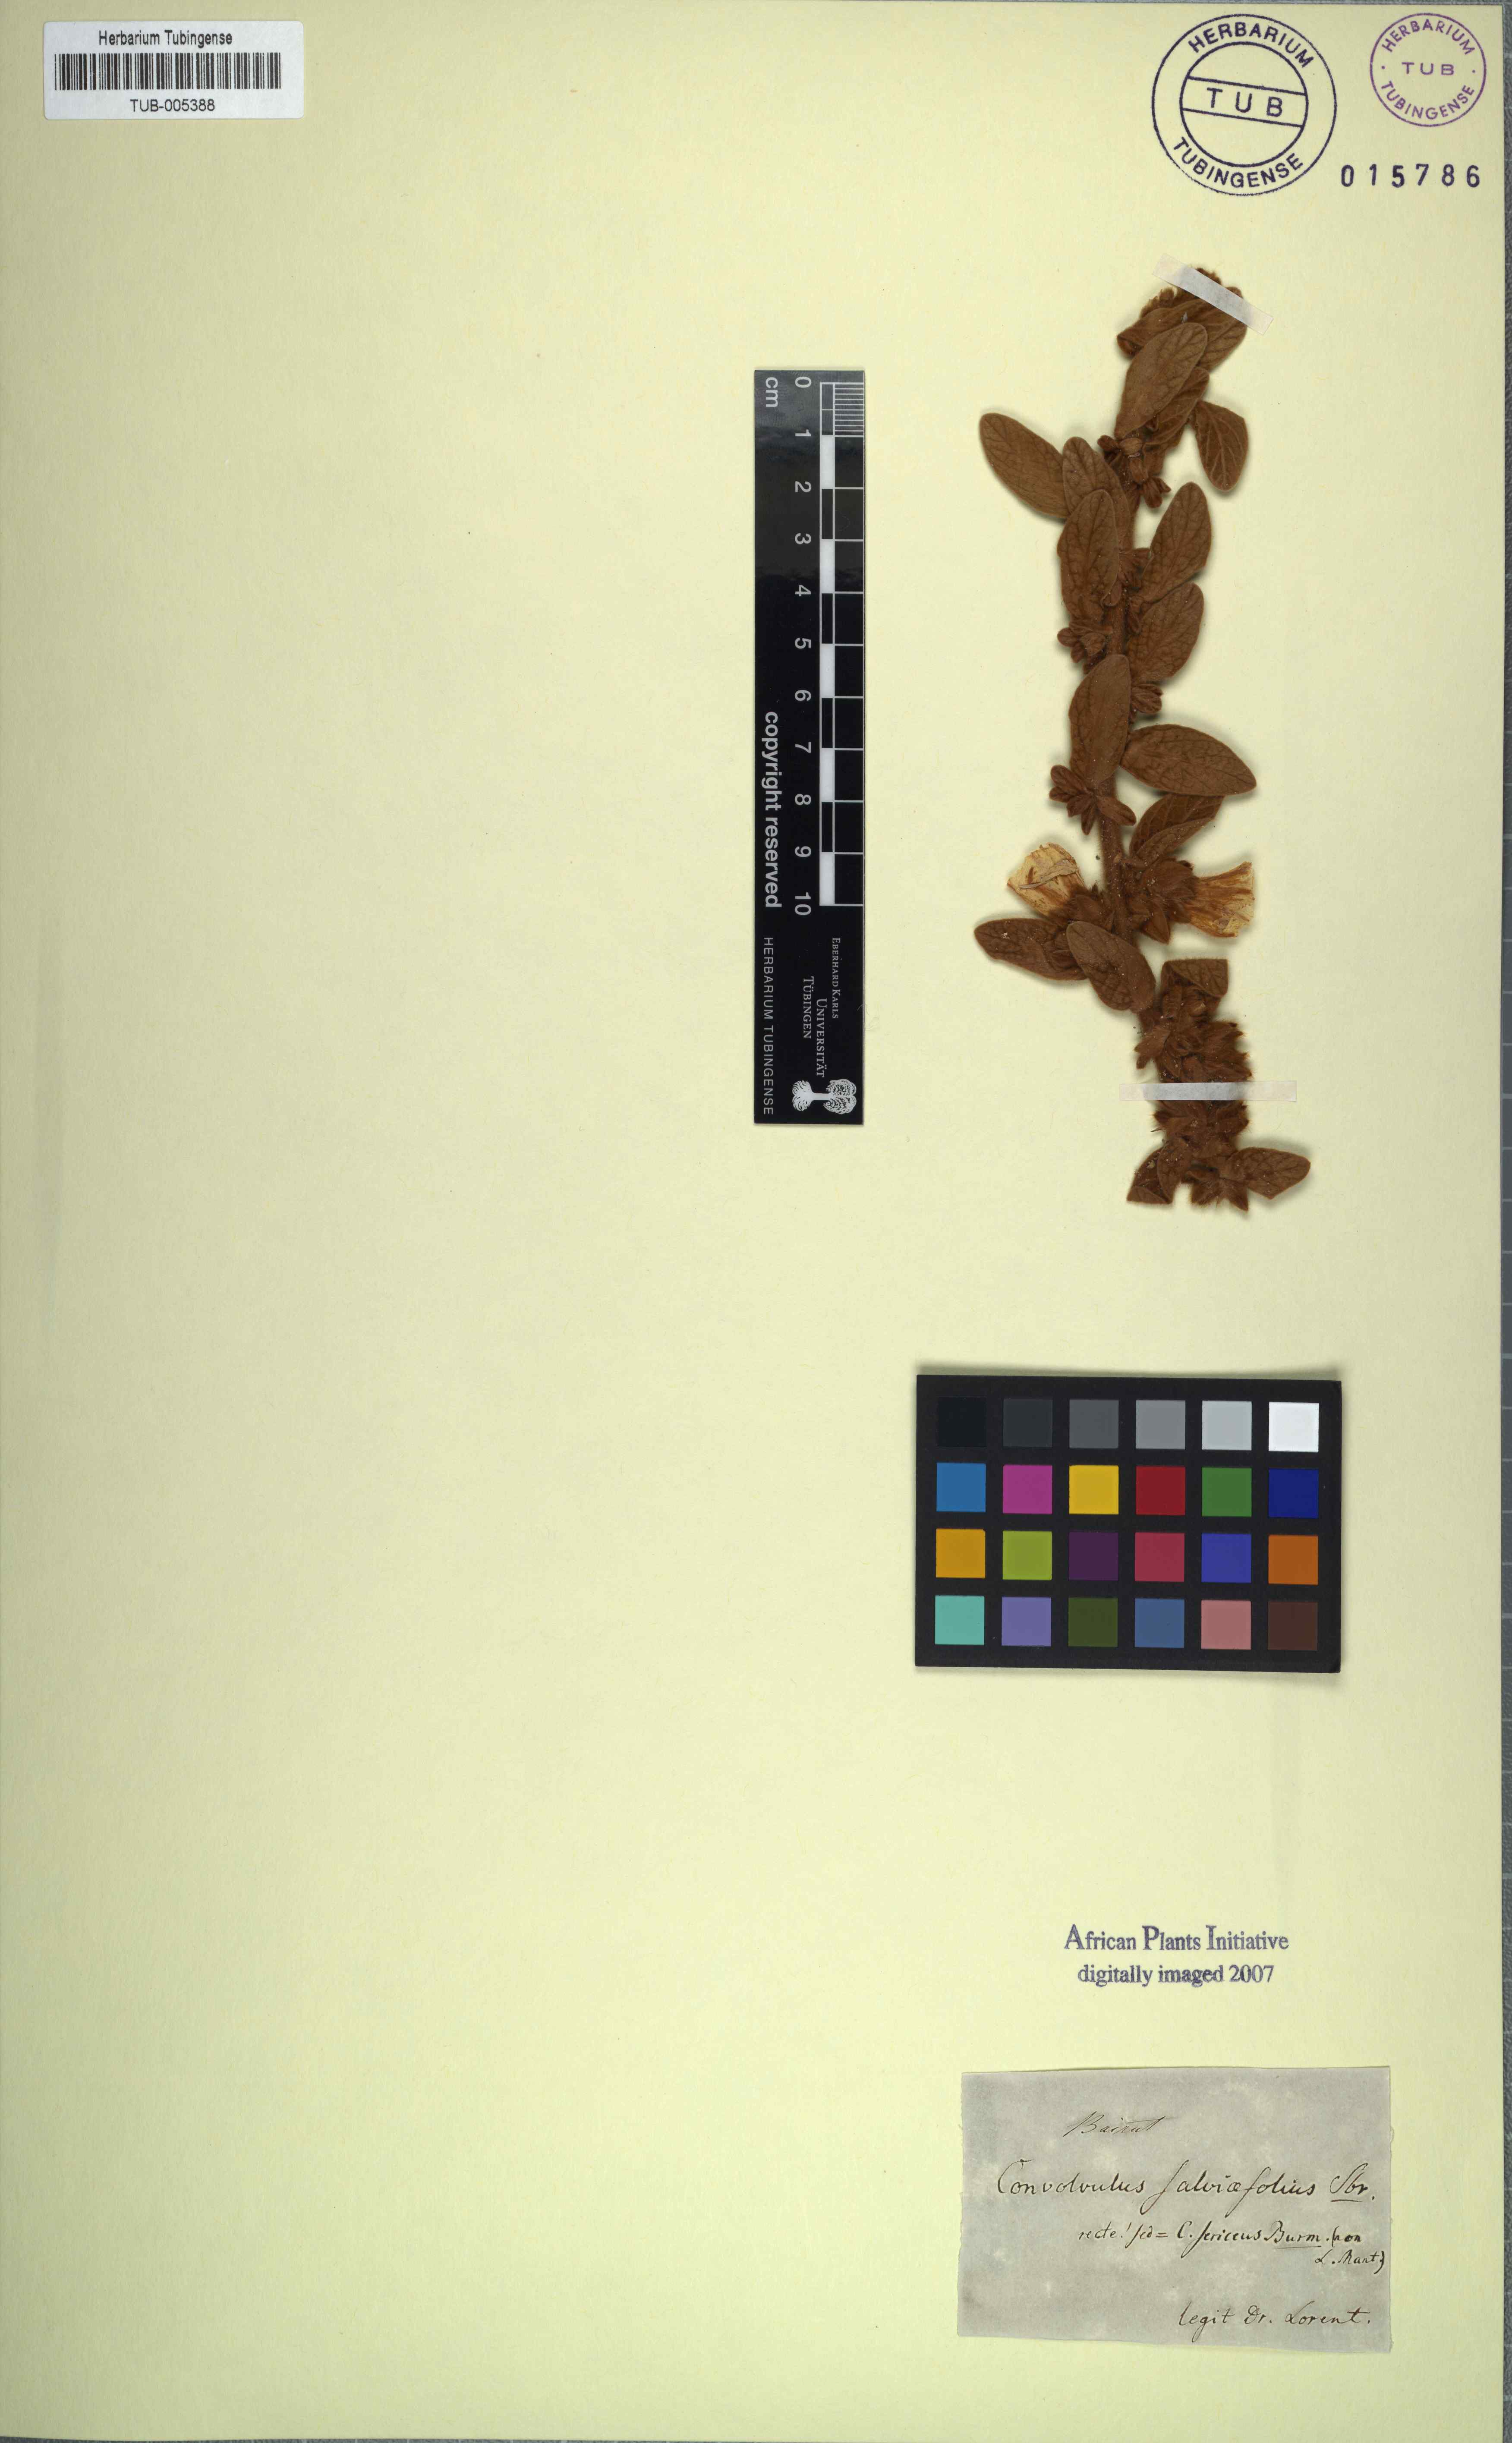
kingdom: Plantae
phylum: Tracheophyta
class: Magnoliopsida
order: Solanales
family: Convolvulaceae
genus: Convolvulus
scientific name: Convolvulus secundus
